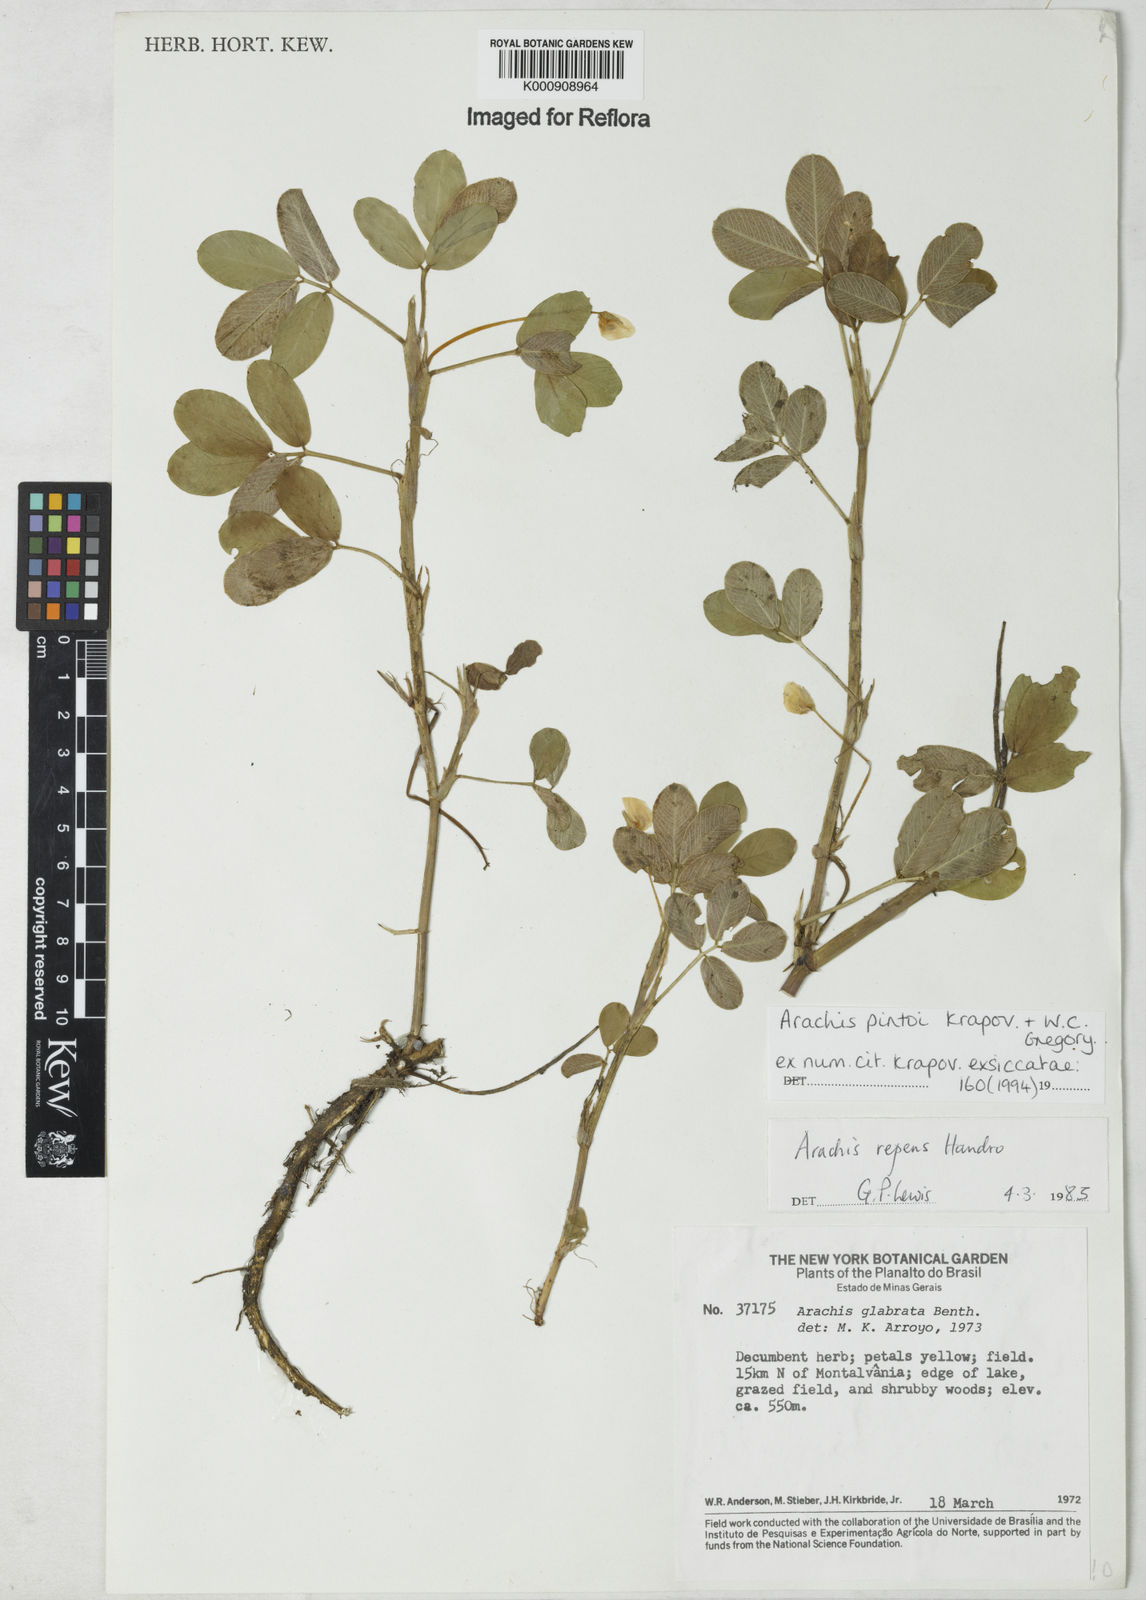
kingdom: Plantae
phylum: Tracheophyta
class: Magnoliopsida
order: Fabales
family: Fabaceae
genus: Arachis
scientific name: Arachis pintoi
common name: Pinto peanut
